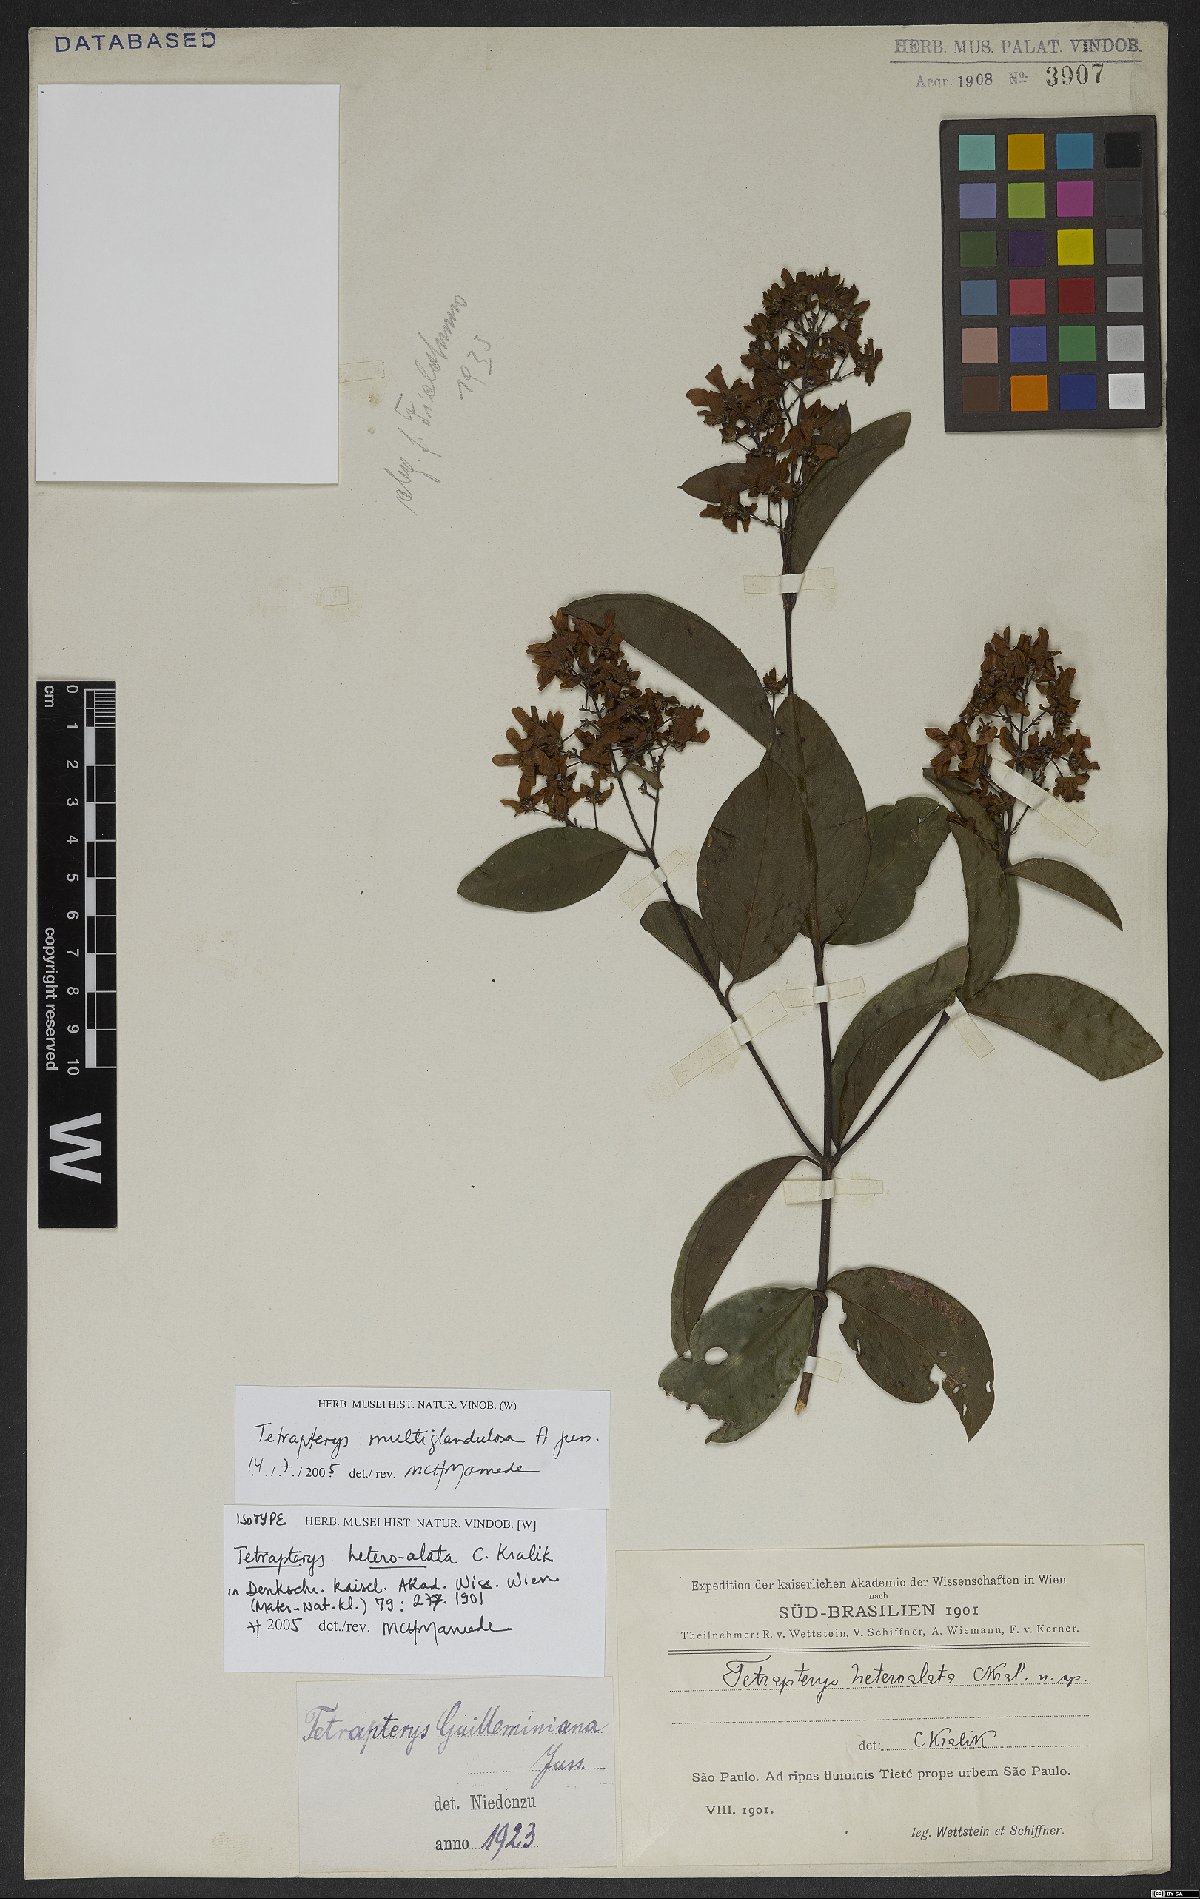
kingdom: Plantae
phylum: Tracheophyta
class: Magnoliopsida
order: Malpighiales
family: Malpighiaceae
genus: Niedenzuella
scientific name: Niedenzuella acutifolia
